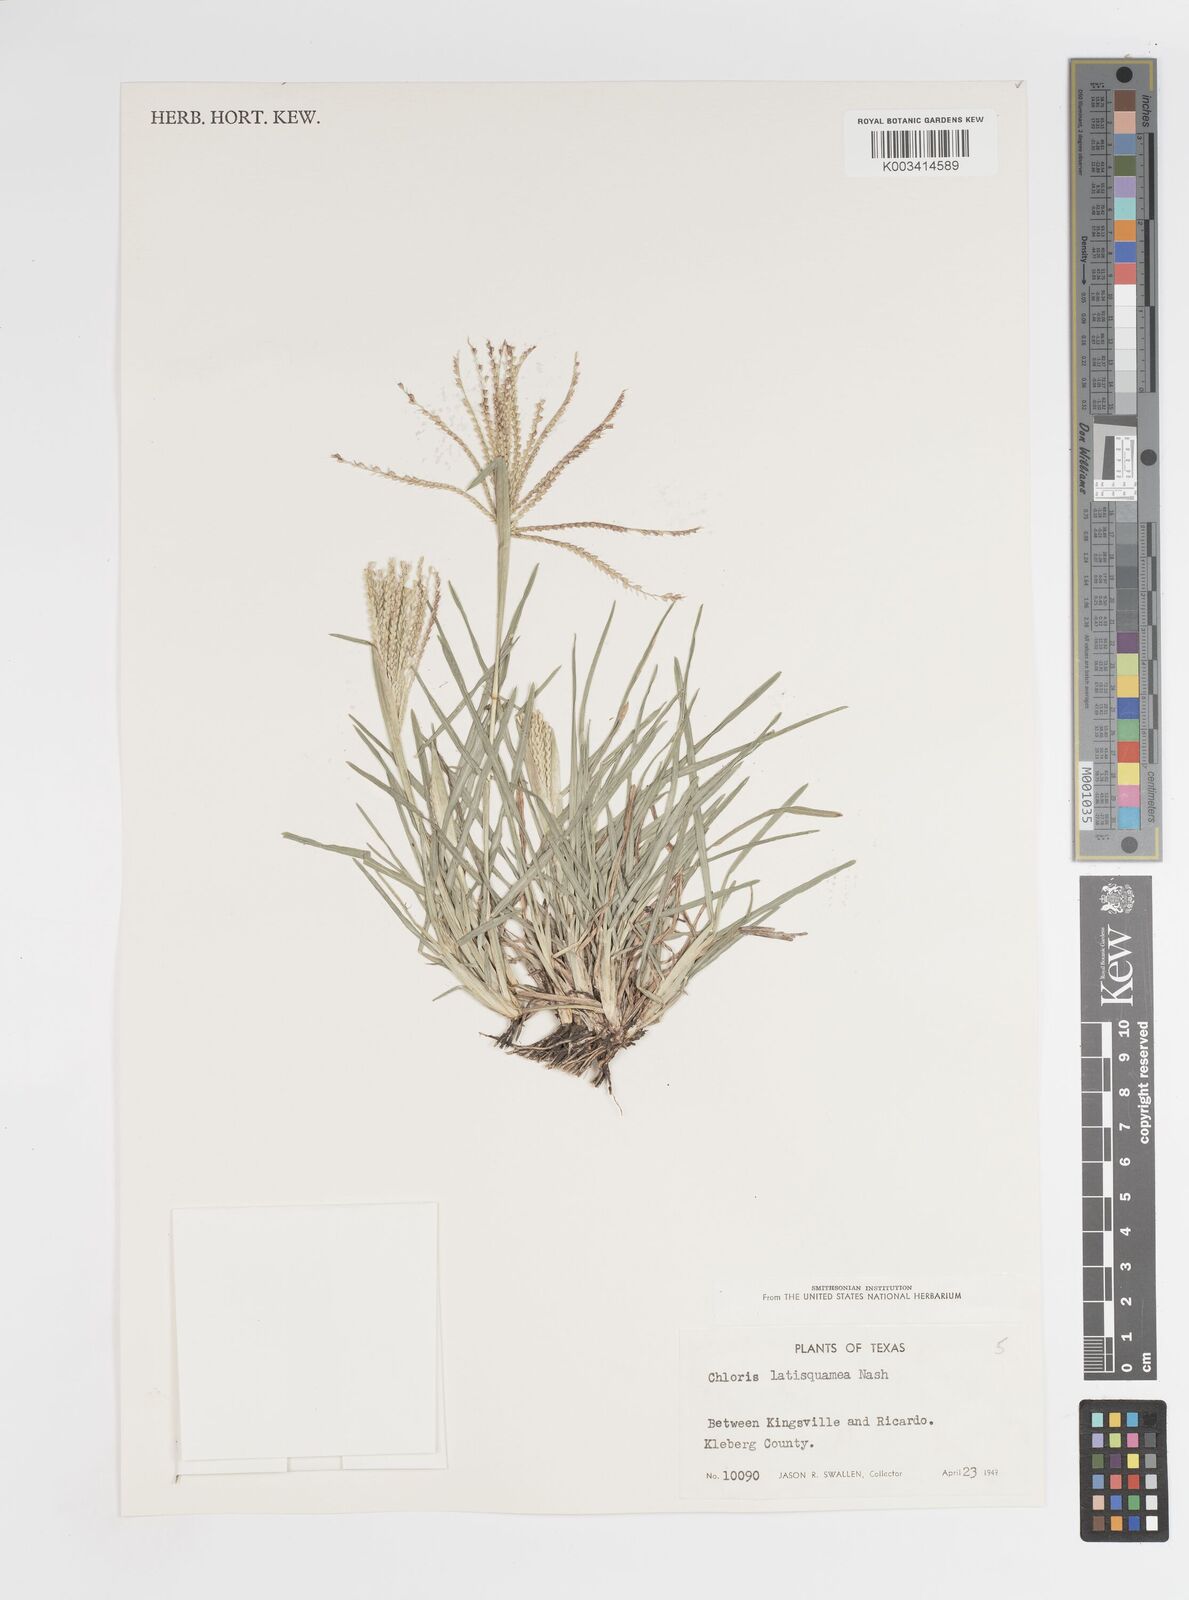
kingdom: Plantae
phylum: Tracheophyta
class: Liliopsida
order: Poales
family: Poaceae
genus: Chloris
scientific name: Chloris subdolichostachya
